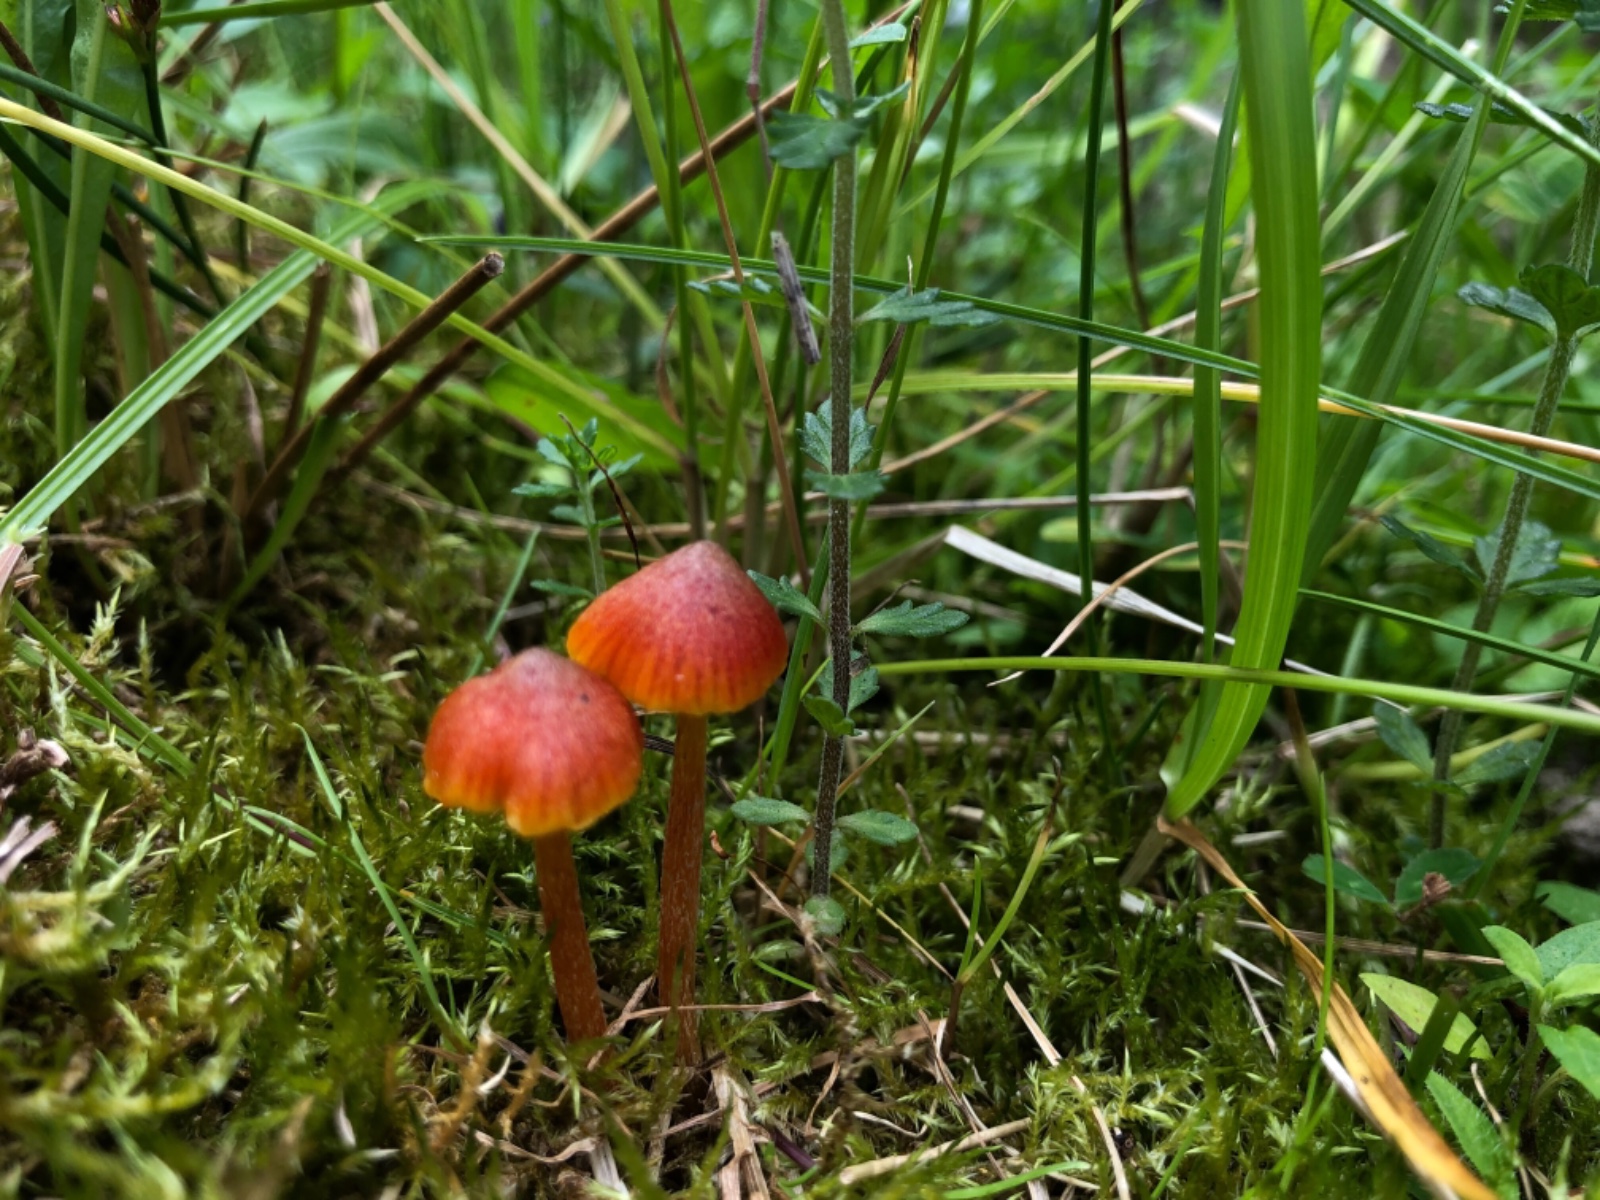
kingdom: Fungi
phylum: Basidiomycota
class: Agaricomycetes
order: Agaricales
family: Hygrophoraceae
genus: Hygrocybe
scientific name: Hygrocybe conica
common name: kegle-vokshat
